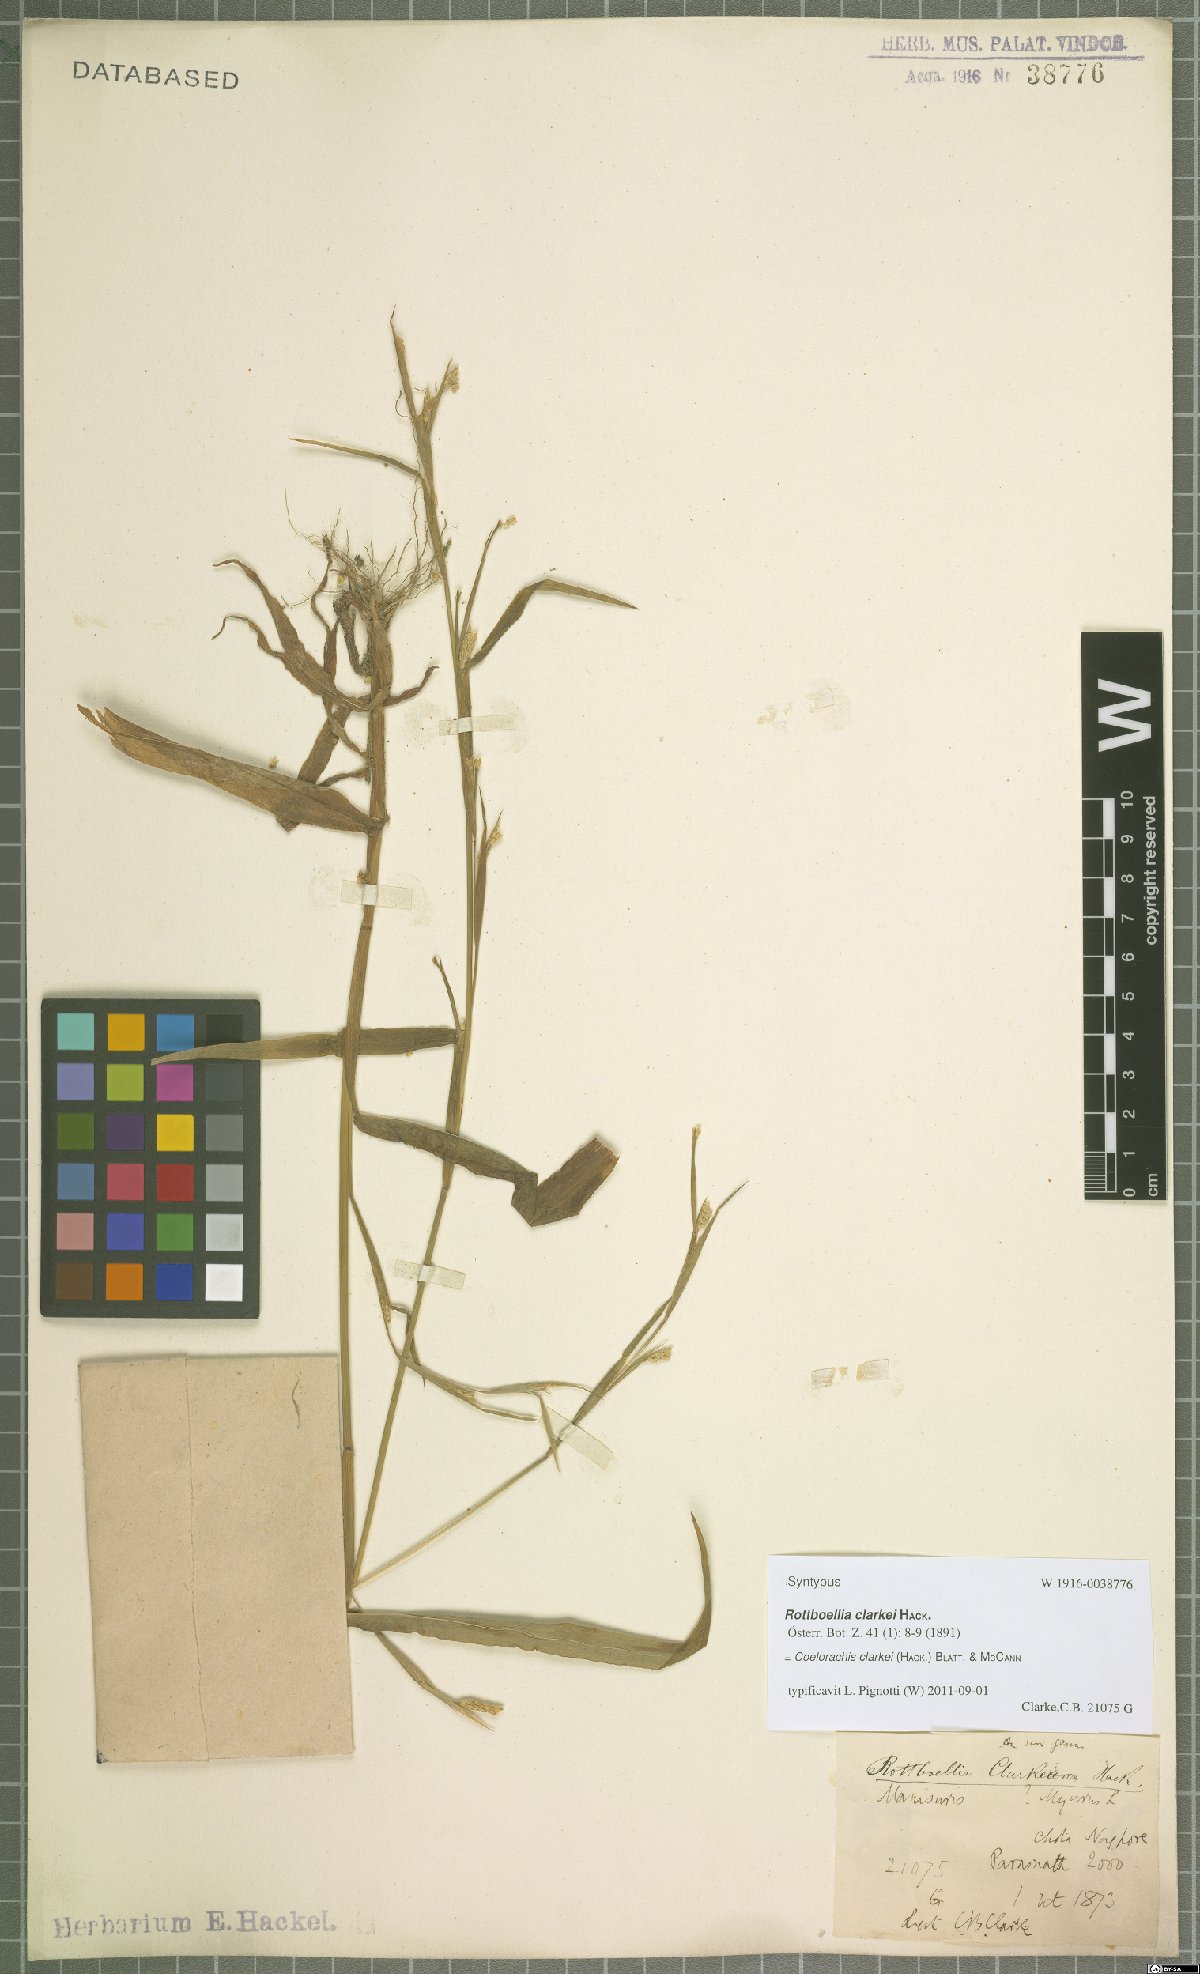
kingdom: Plantae
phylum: Tracheophyta
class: Liliopsida
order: Poales
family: Poaceae
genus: Rottboellia
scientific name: Rottboellia clarkei
